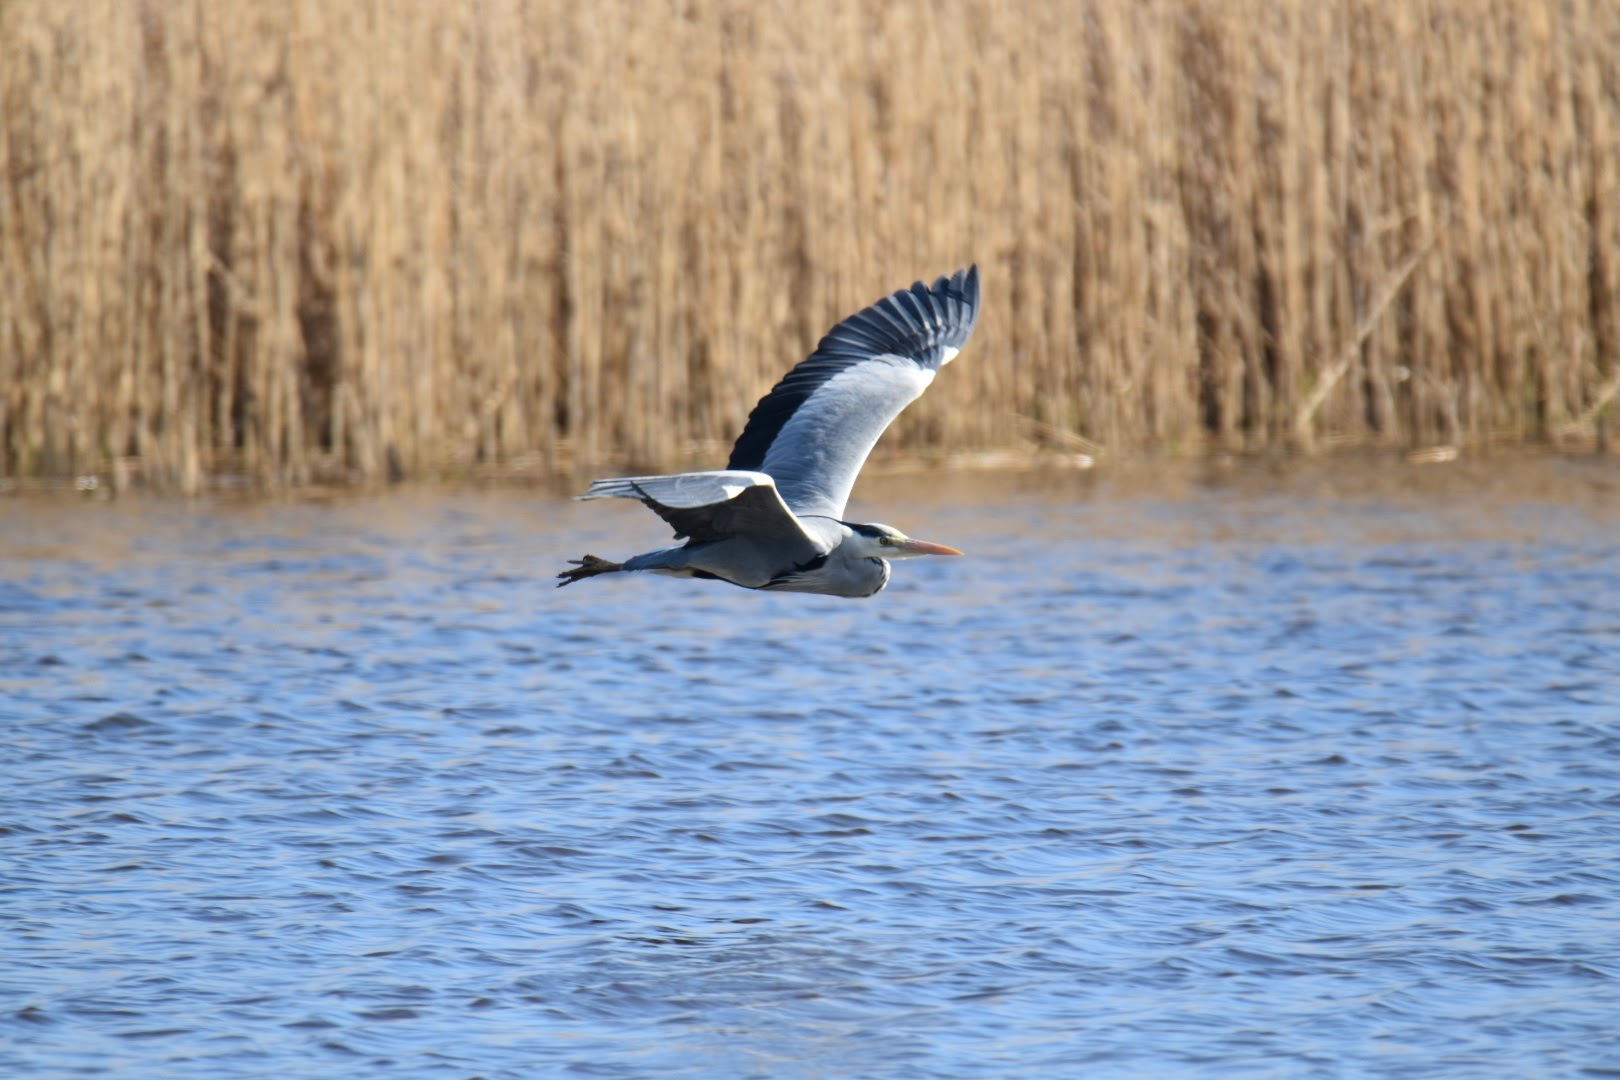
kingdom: Animalia
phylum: Chordata
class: Aves
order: Pelecaniformes
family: Ardeidae
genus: Ardea
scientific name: Ardea cinerea
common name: Fiskehejre
